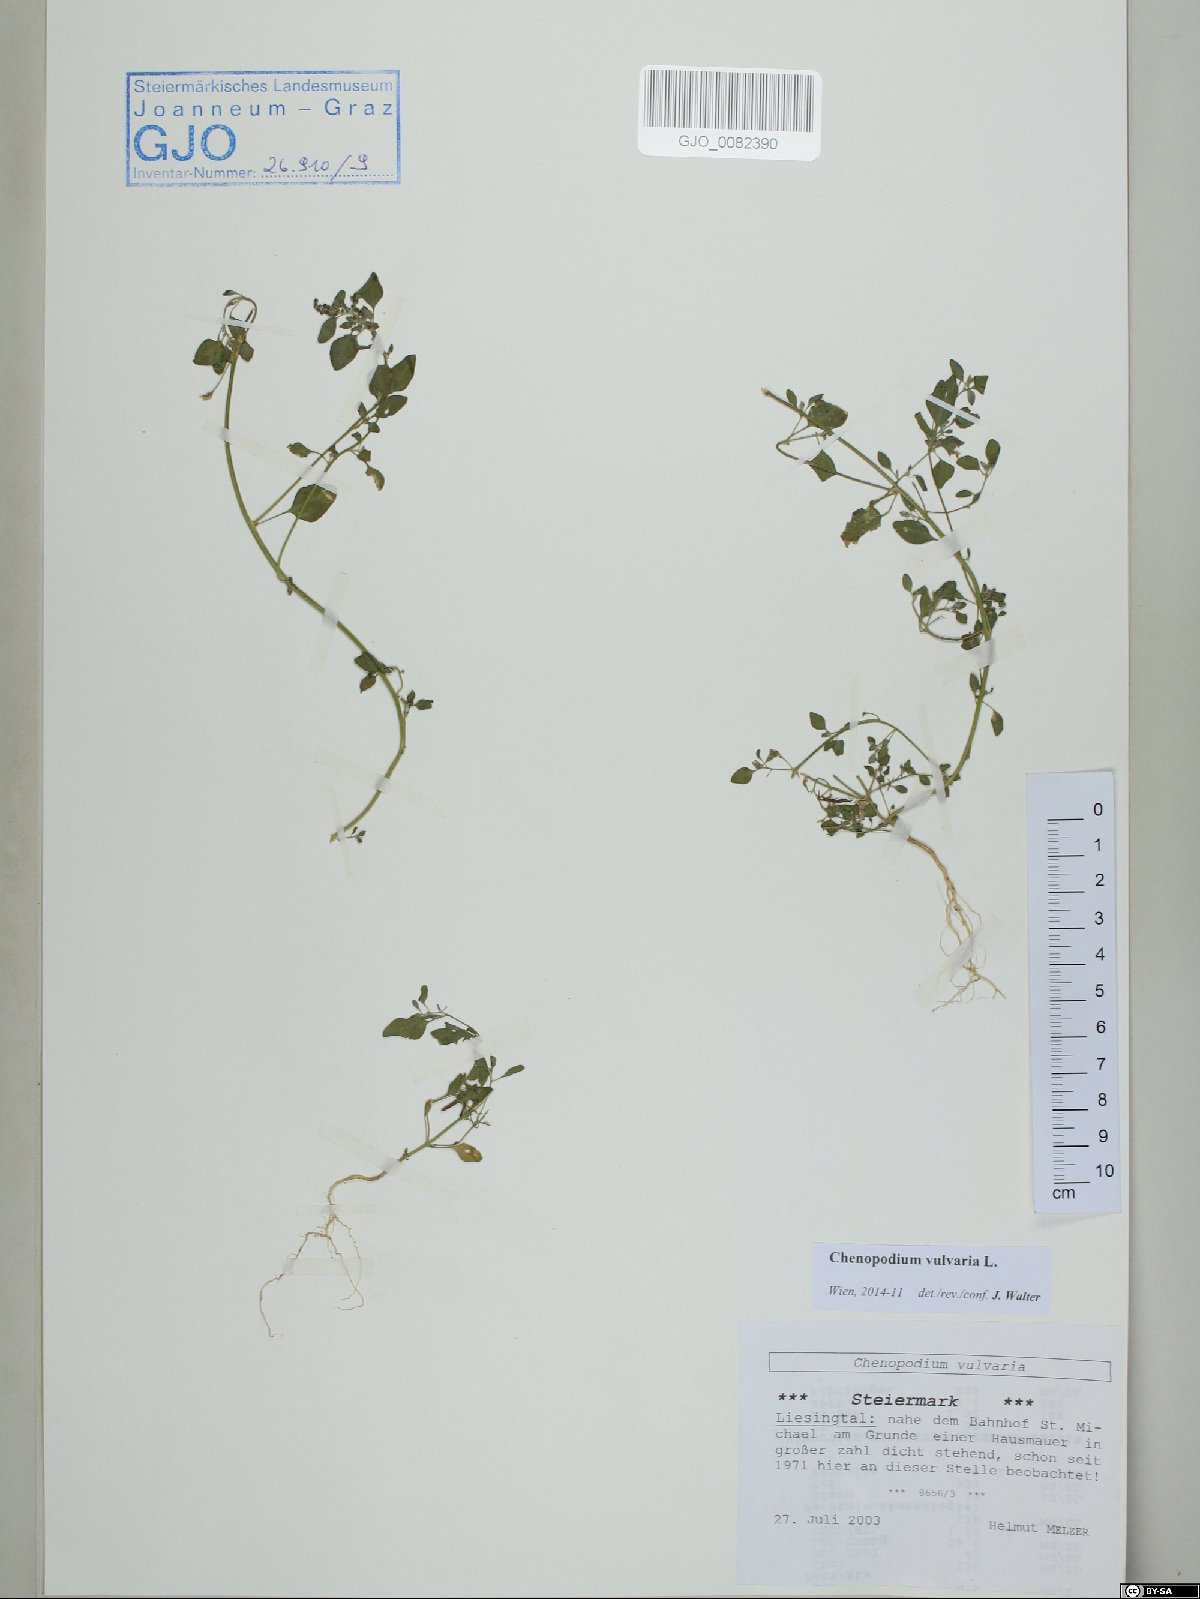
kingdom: Plantae
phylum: Tracheophyta
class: Magnoliopsida
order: Caryophyllales
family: Amaranthaceae
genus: Chenopodium
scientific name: Chenopodium vulvaria
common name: Stinking goosefoot
